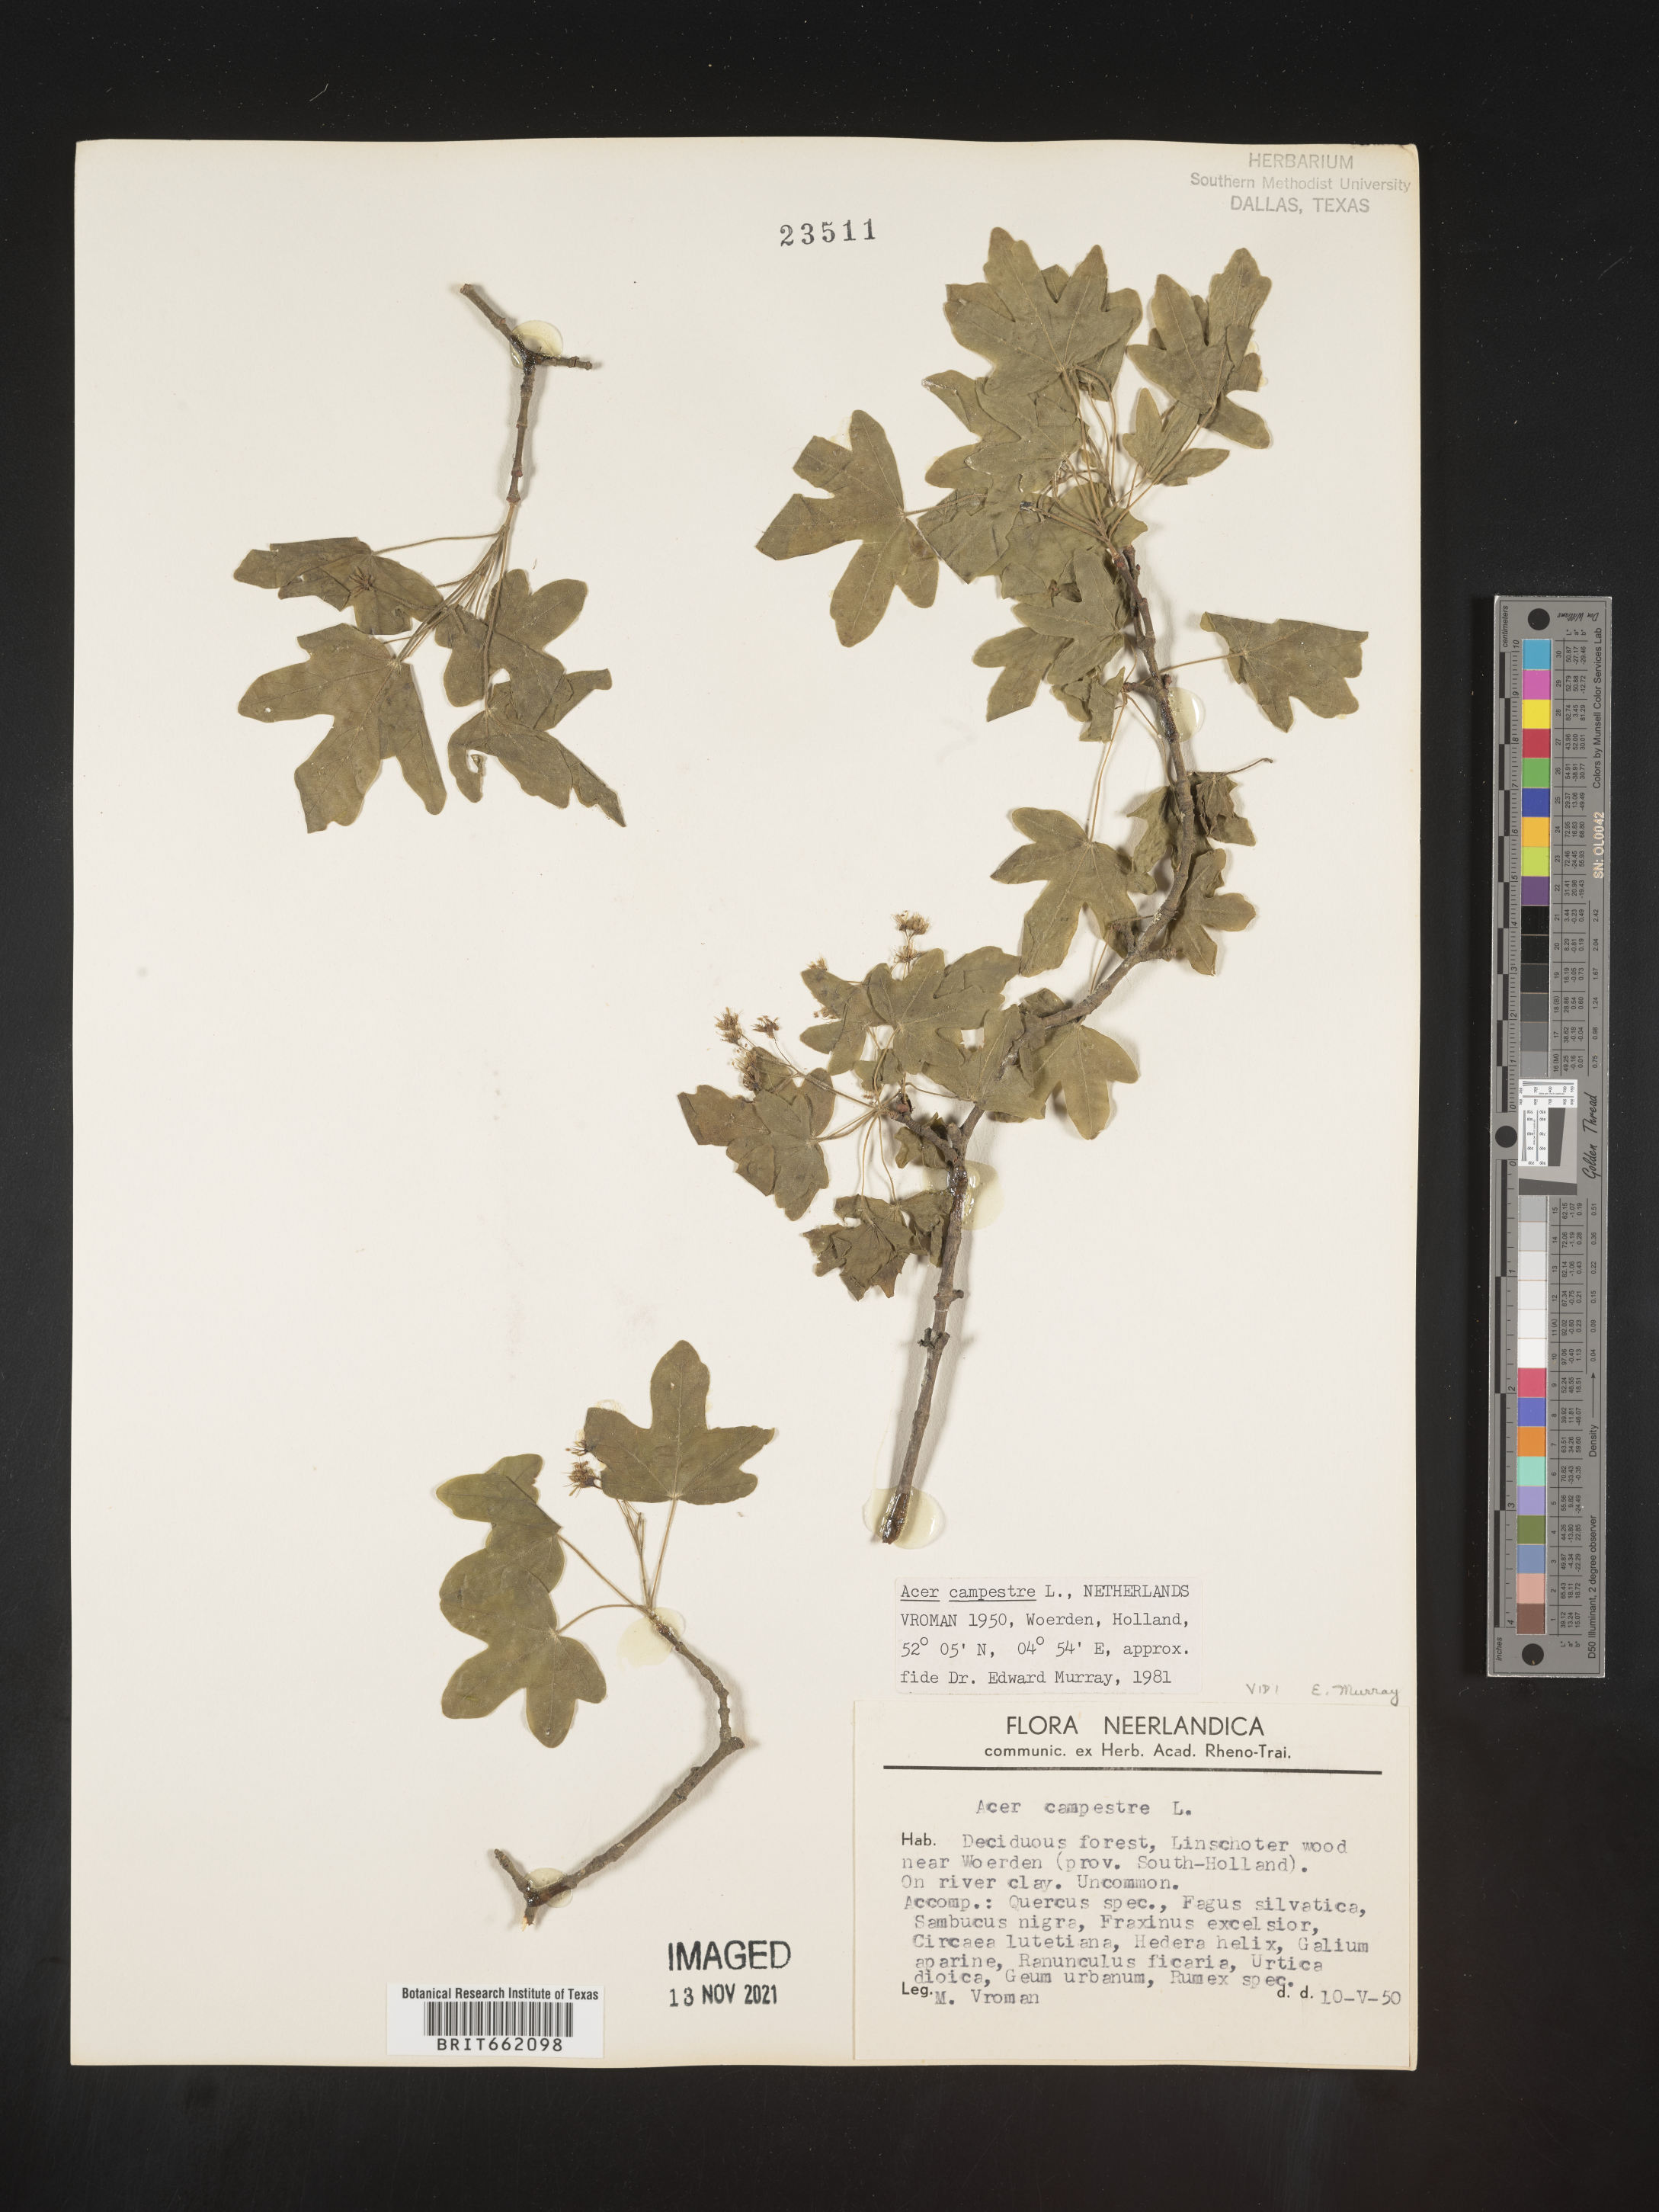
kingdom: Plantae
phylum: Tracheophyta
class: Magnoliopsida
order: Sapindales
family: Sapindaceae
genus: Acer
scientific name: Acer
